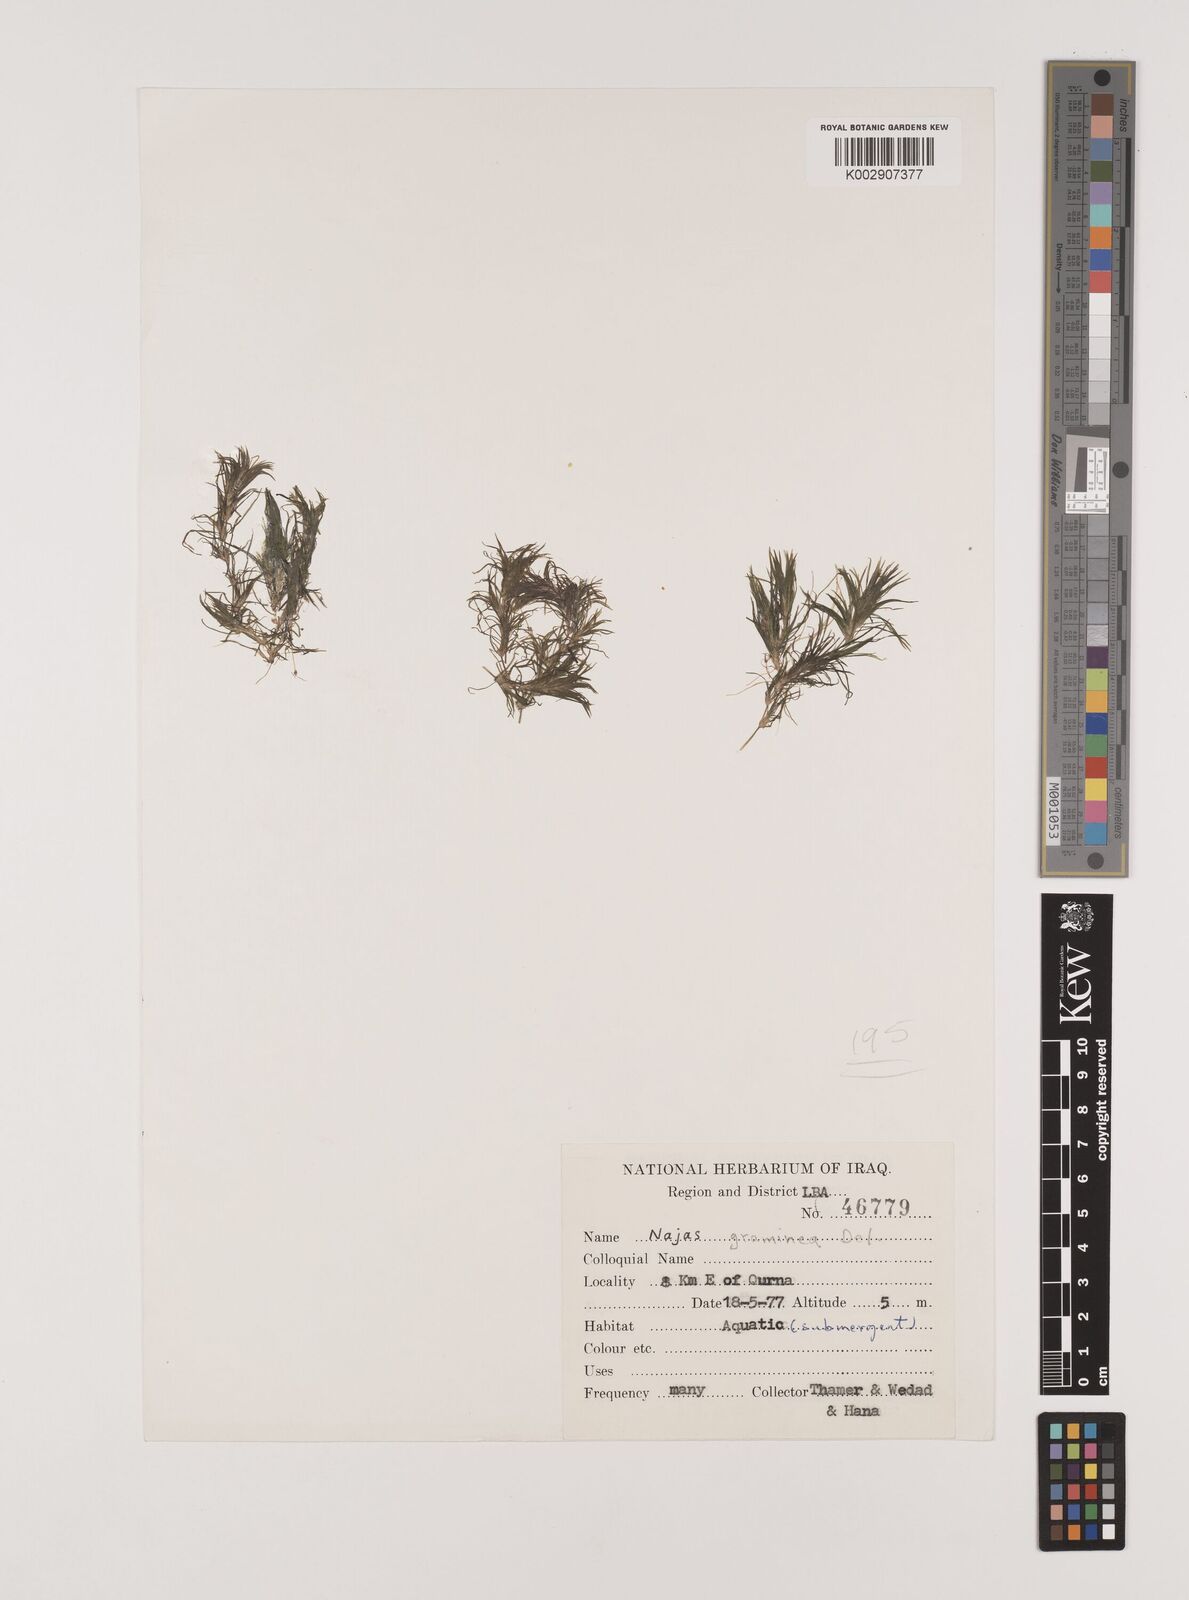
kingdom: Plantae
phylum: Tracheophyta
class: Liliopsida
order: Alismatales
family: Hydrocharitaceae
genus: Najas
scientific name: Najas graminea
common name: Ricefield waternymph
